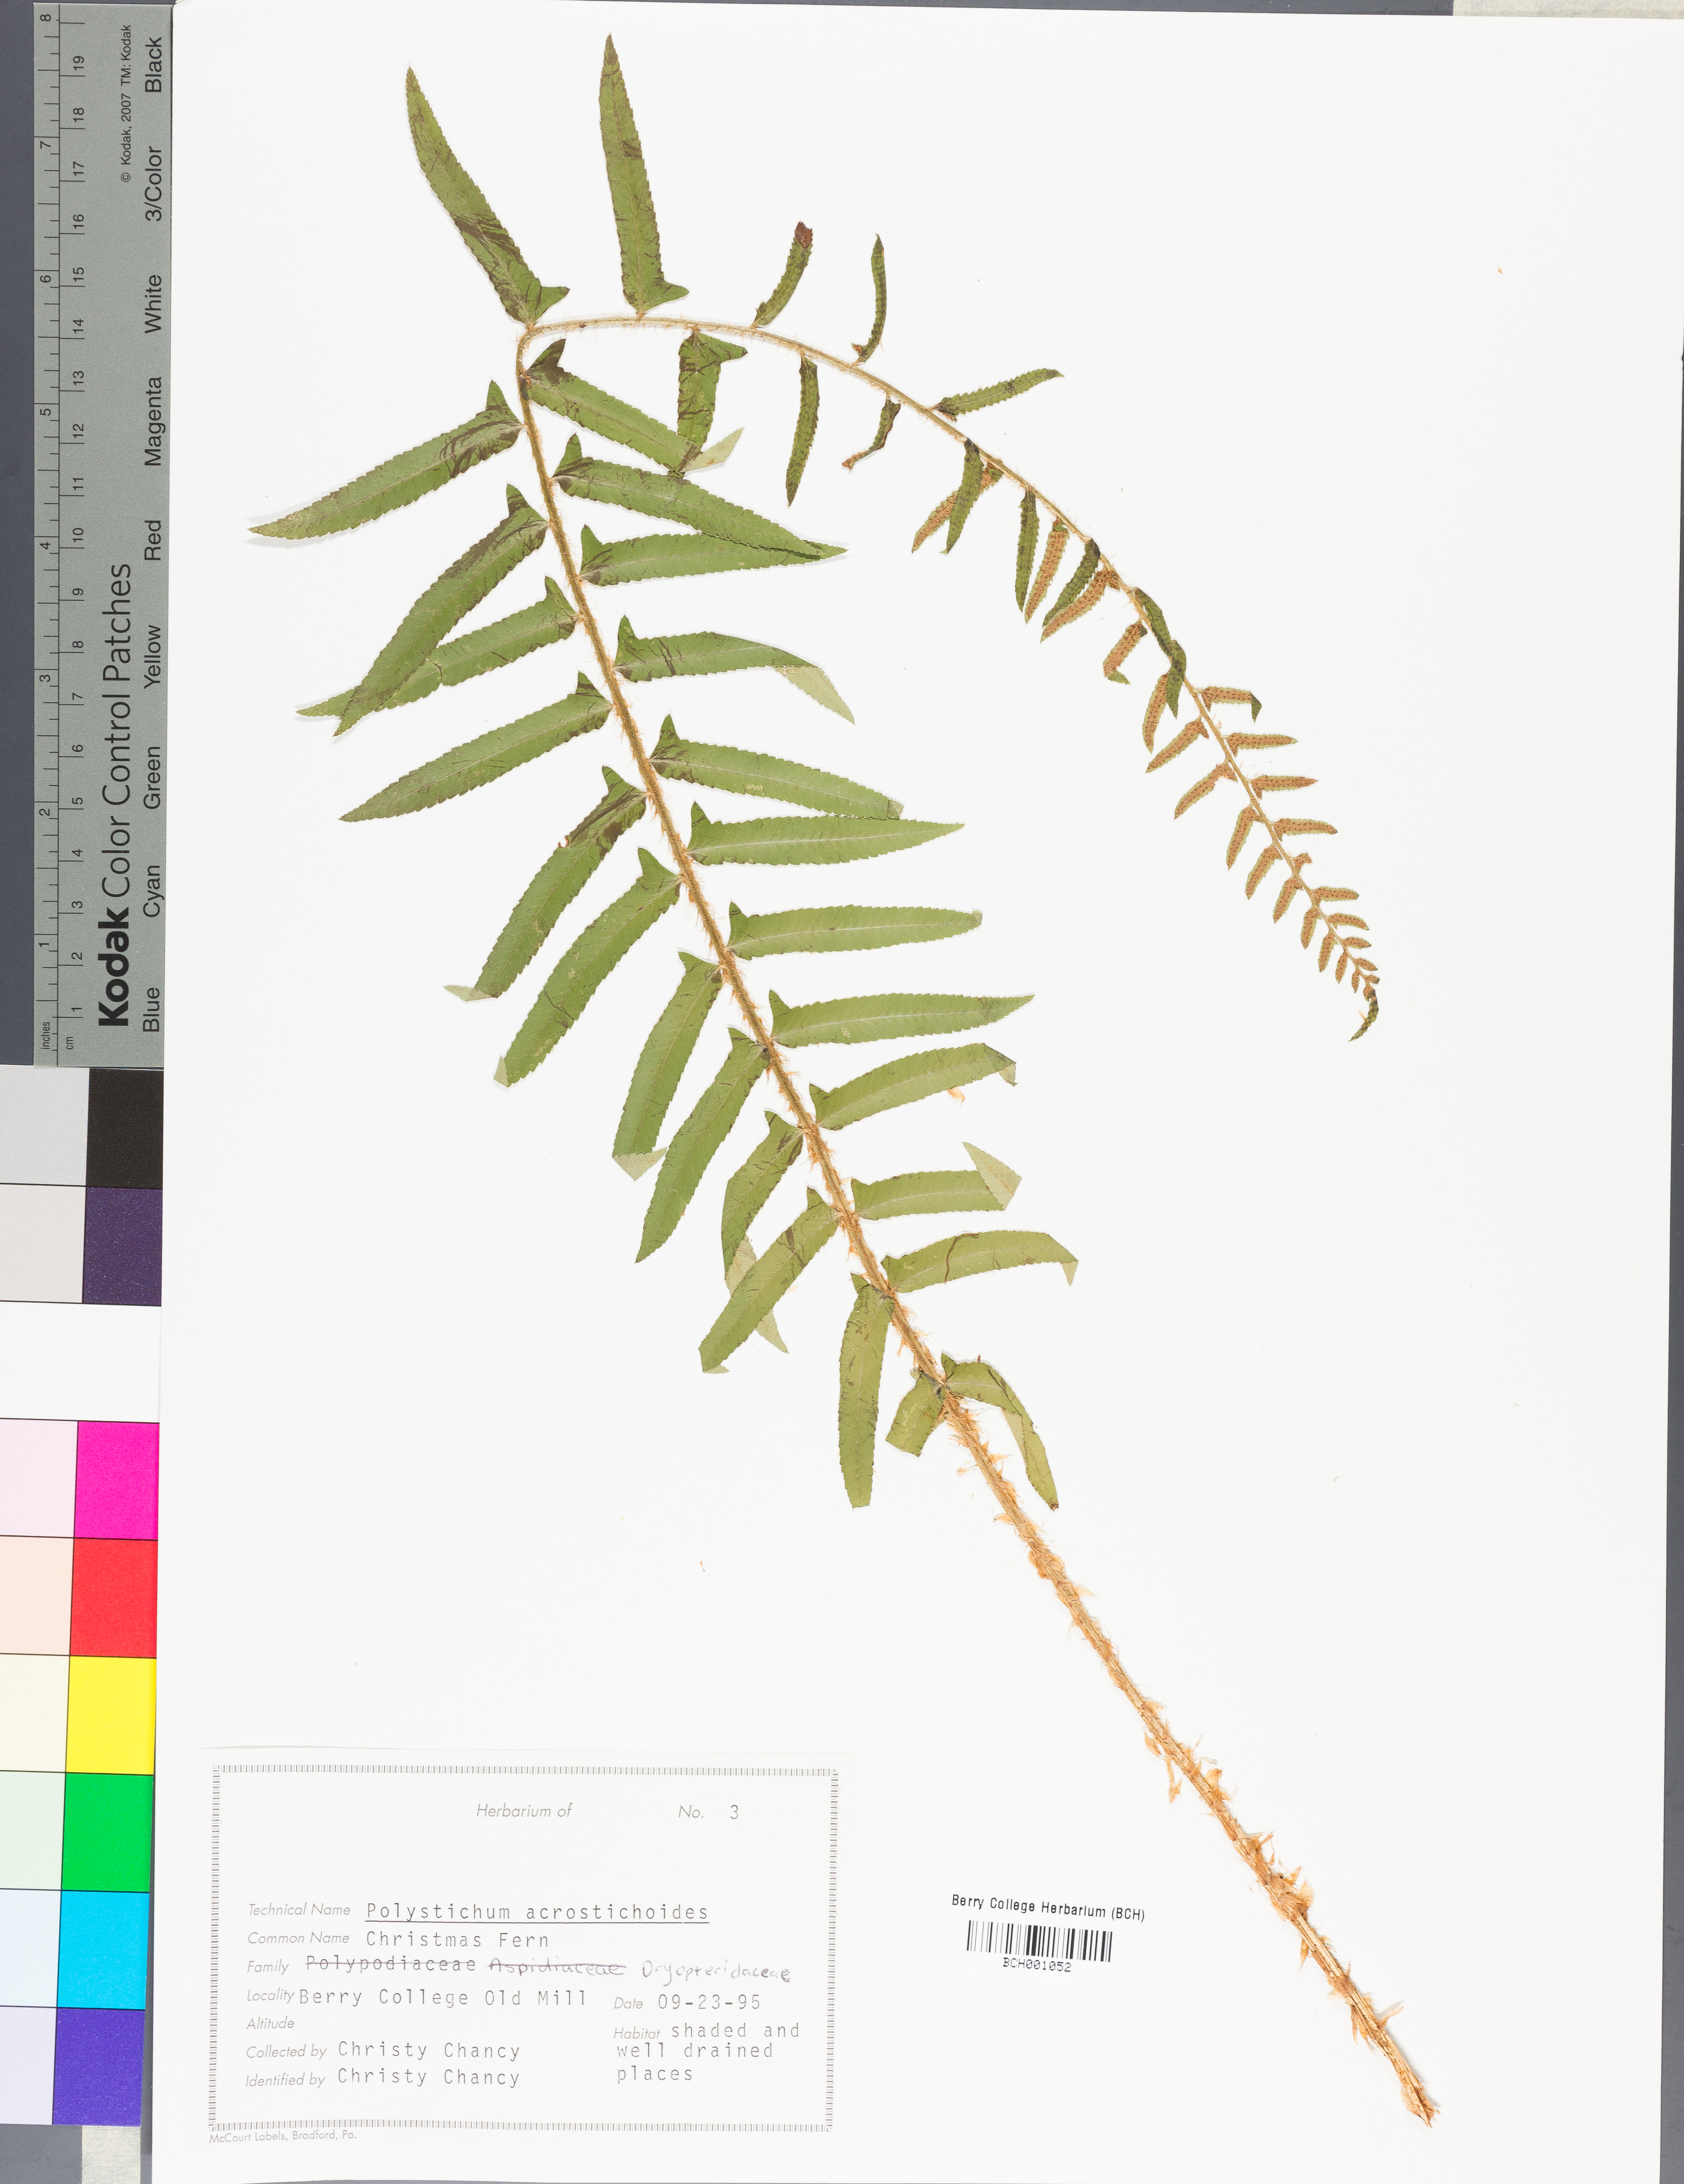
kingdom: Plantae
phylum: Tracheophyta
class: Polypodiopsida
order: Polypodiales
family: Dryopteridaceae
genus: Polystichum
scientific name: Polystichum acrostichoides
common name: Christmas fern
